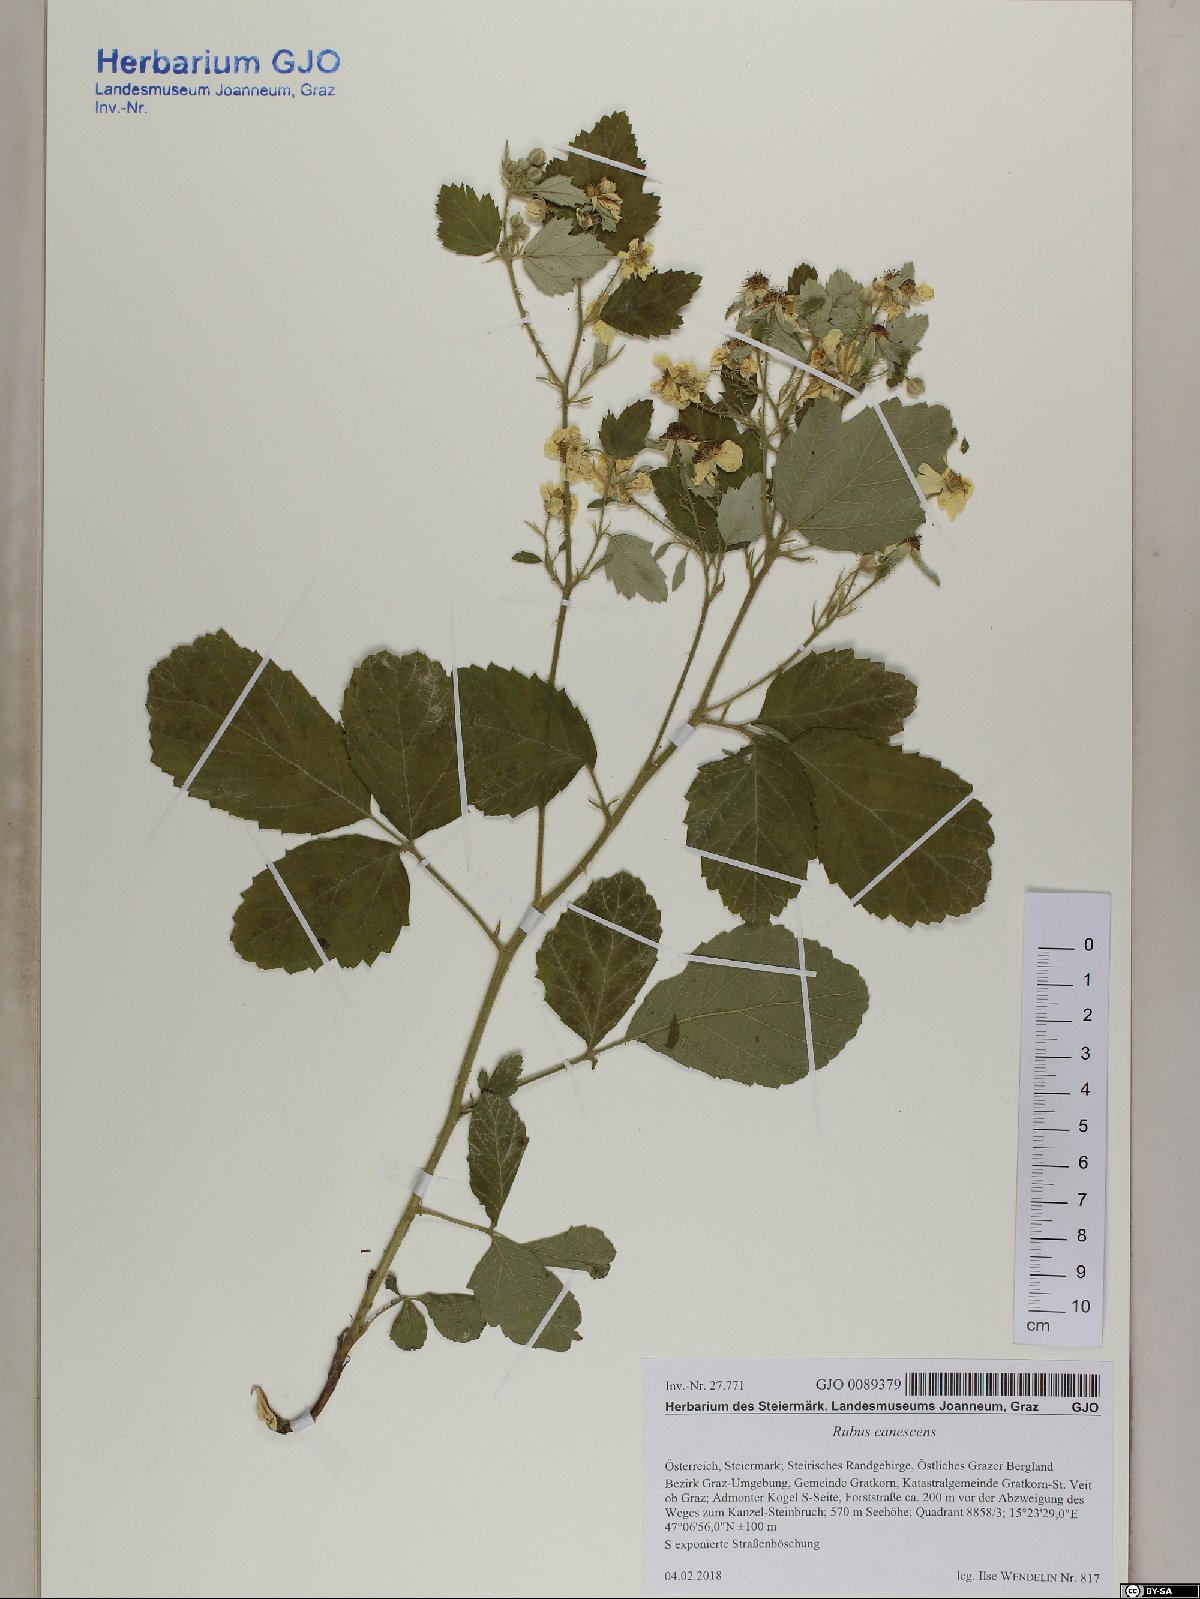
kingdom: Plantae
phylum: Tracheophyta
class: Magnoliopsida
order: Rosales
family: Rosaceae
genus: Rubus
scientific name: Rubus canescens
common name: Wooly blackberry
